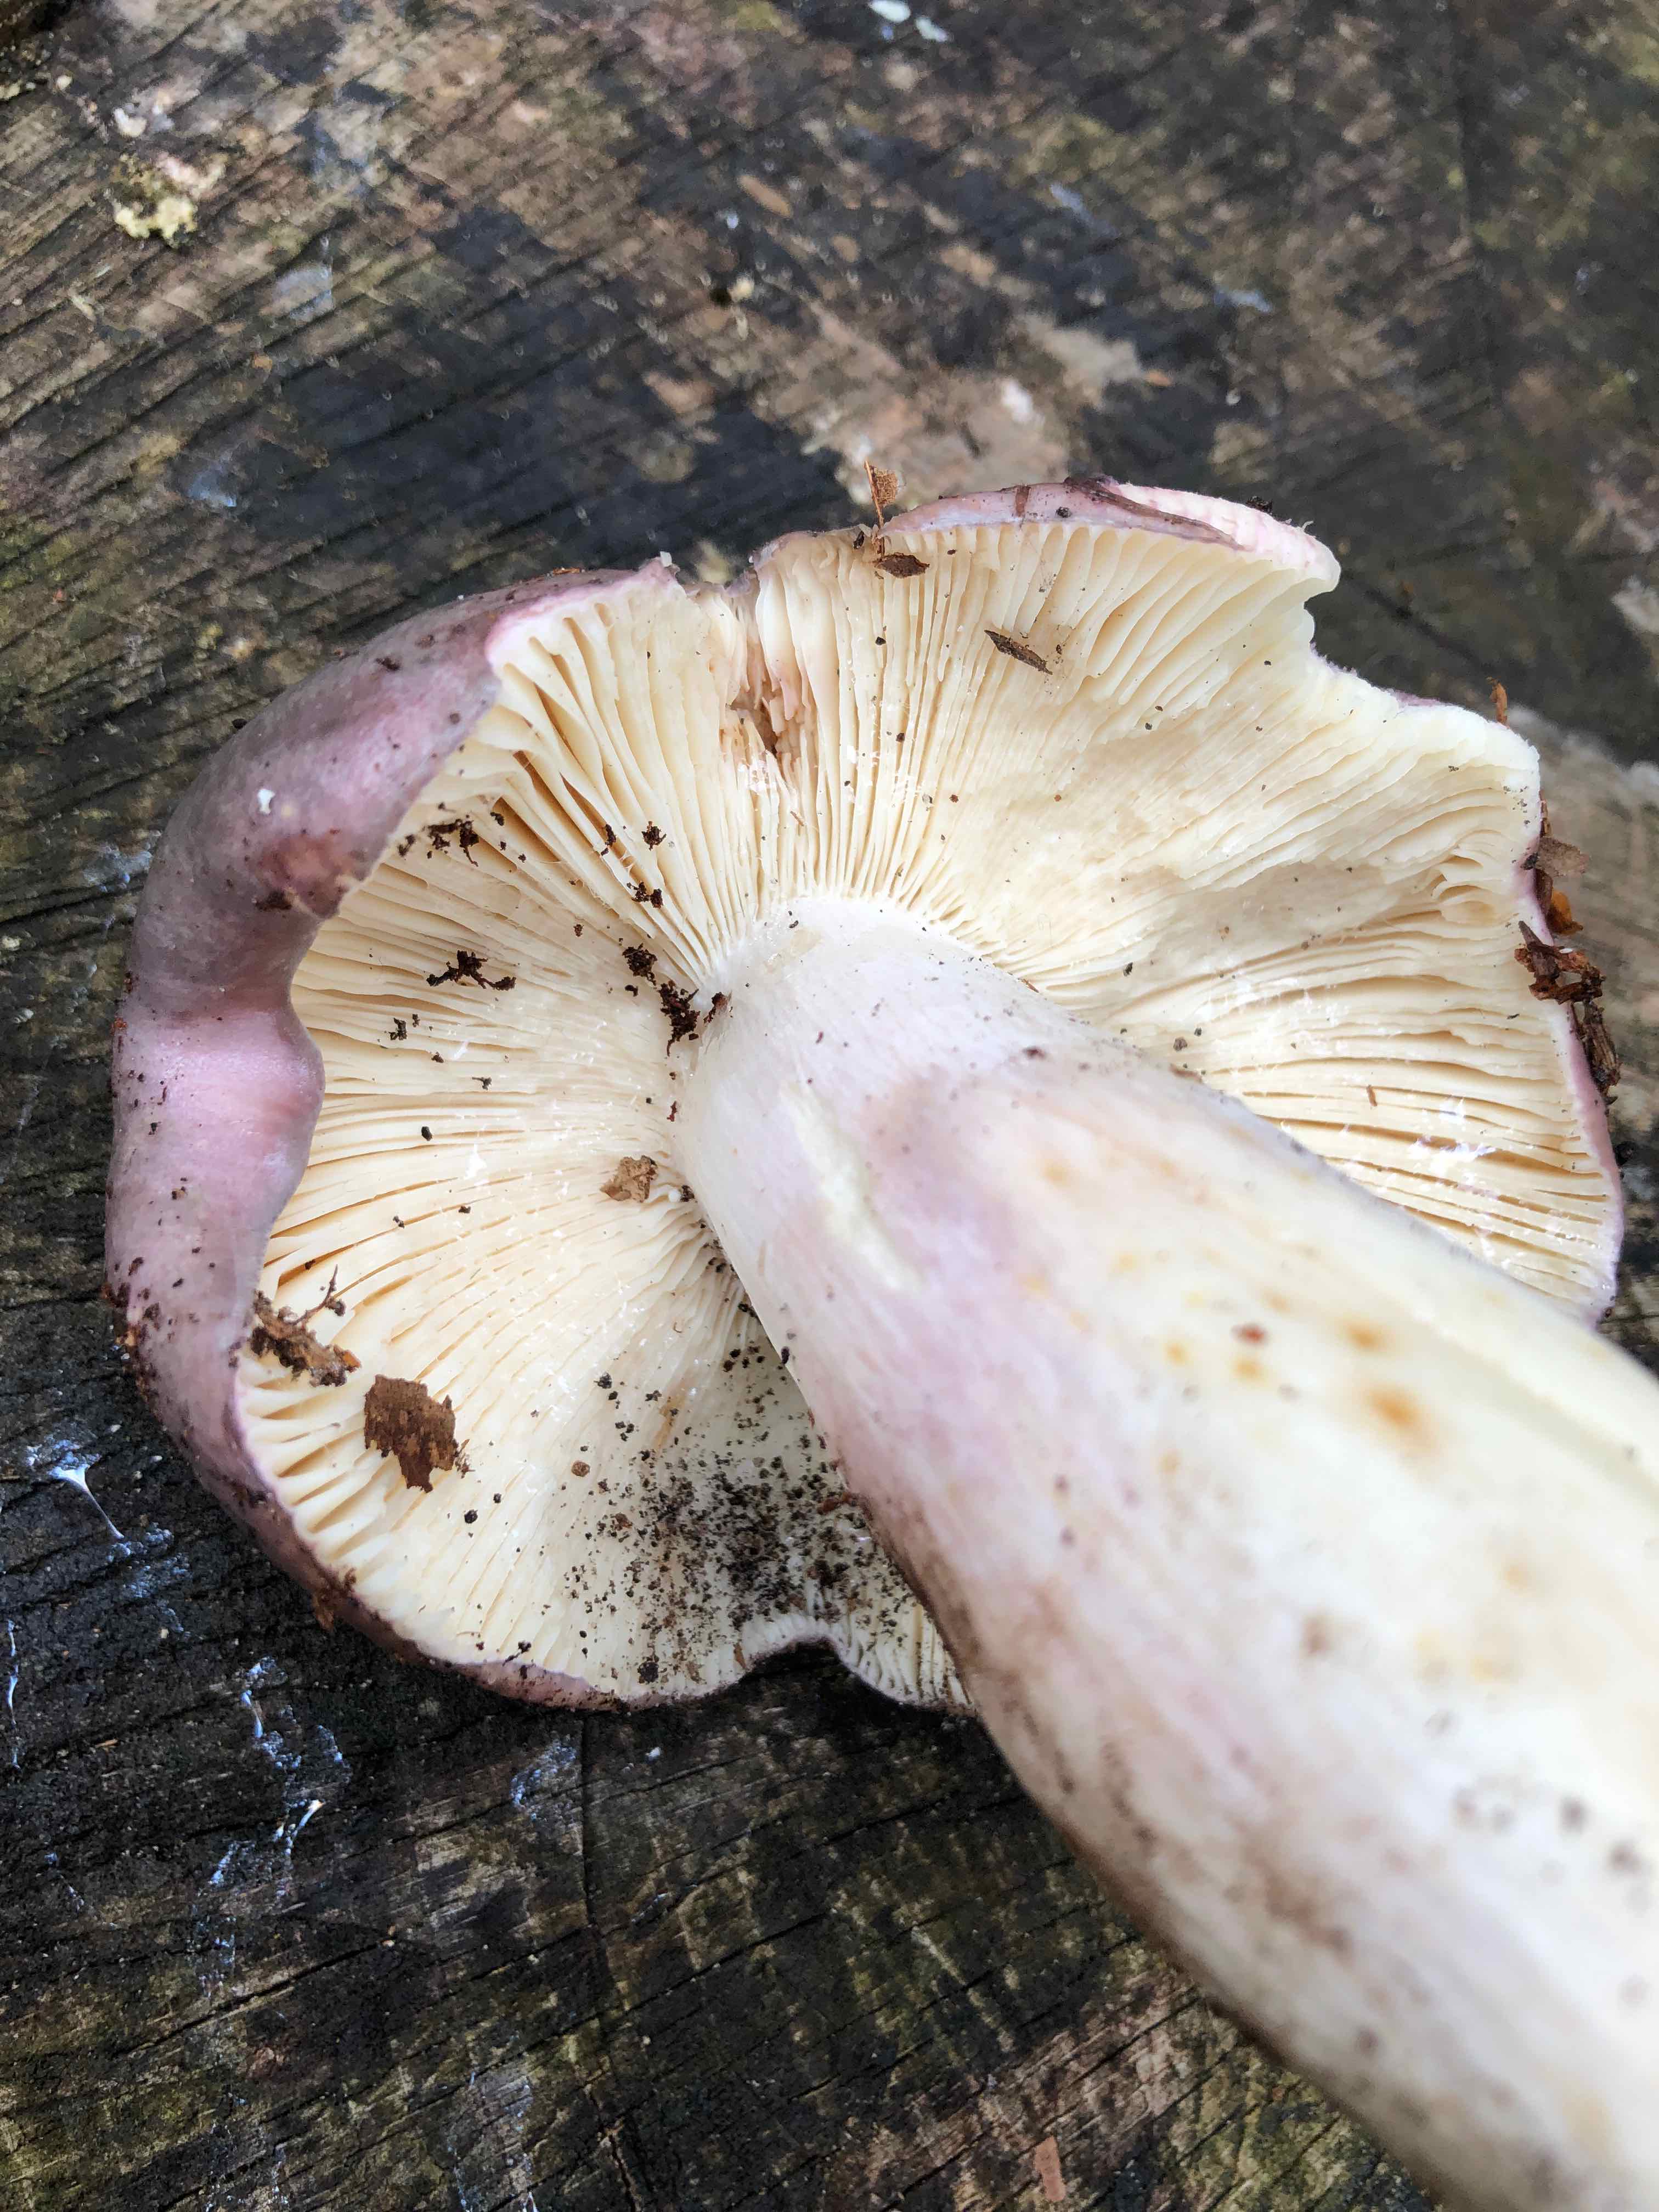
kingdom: Fungi
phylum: Basidiomycota
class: Agaricomycetes
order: Russulales
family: Russulaceae
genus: Russula
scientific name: Russula cyanoxantha
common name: broget skørhat
